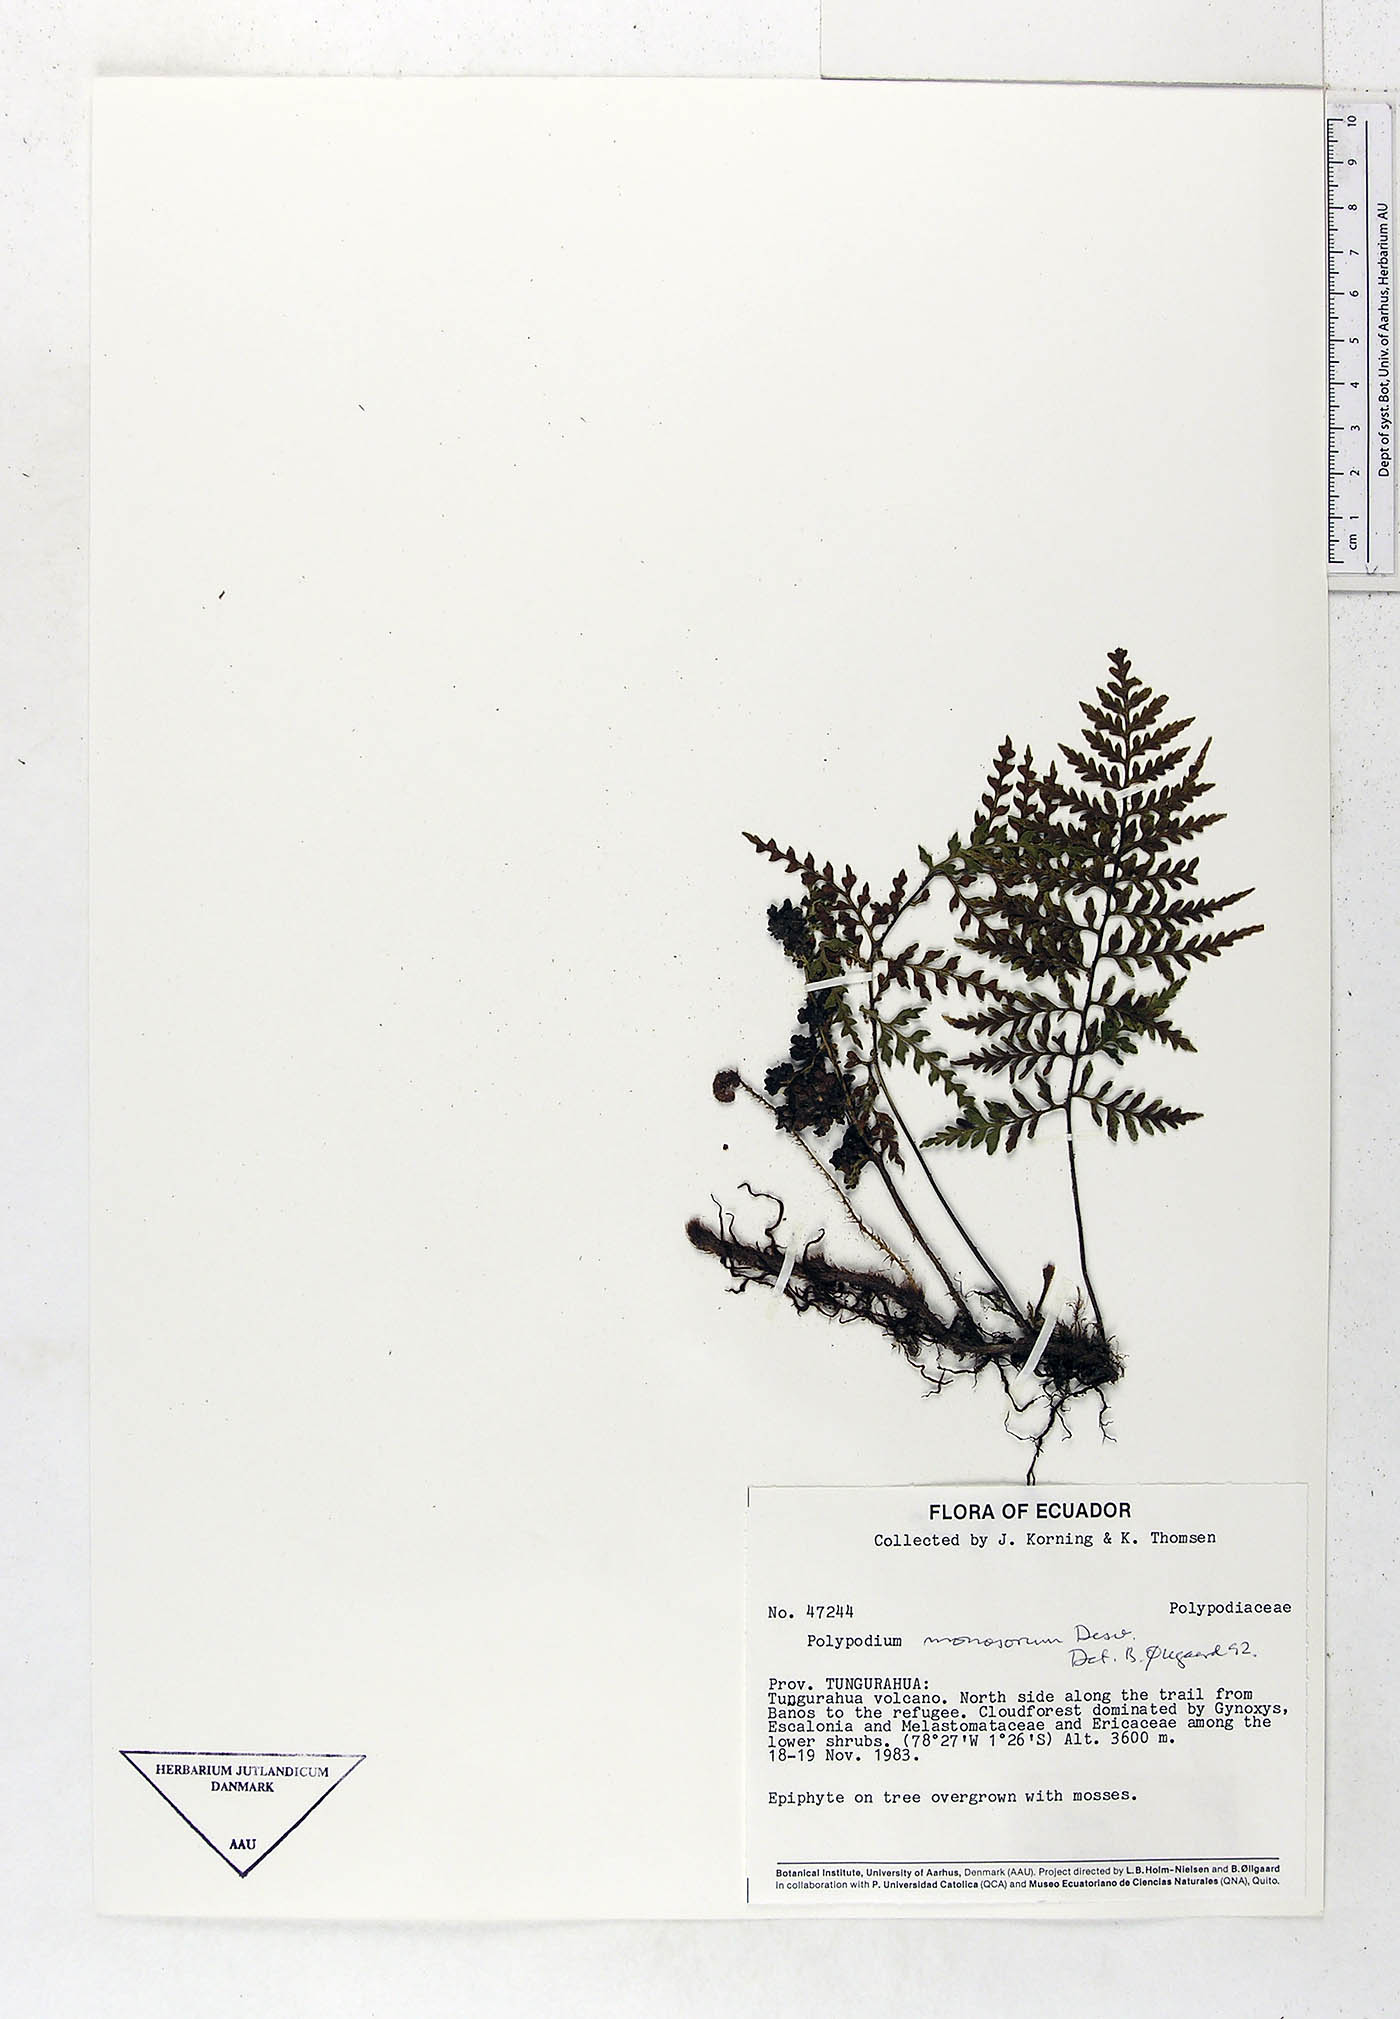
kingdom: Plantae
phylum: Tracheophyta
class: Polypodiopsida
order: Polypodiales
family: Polypodiaceae
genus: Pleopeltis
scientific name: Pleopeltis monosora
